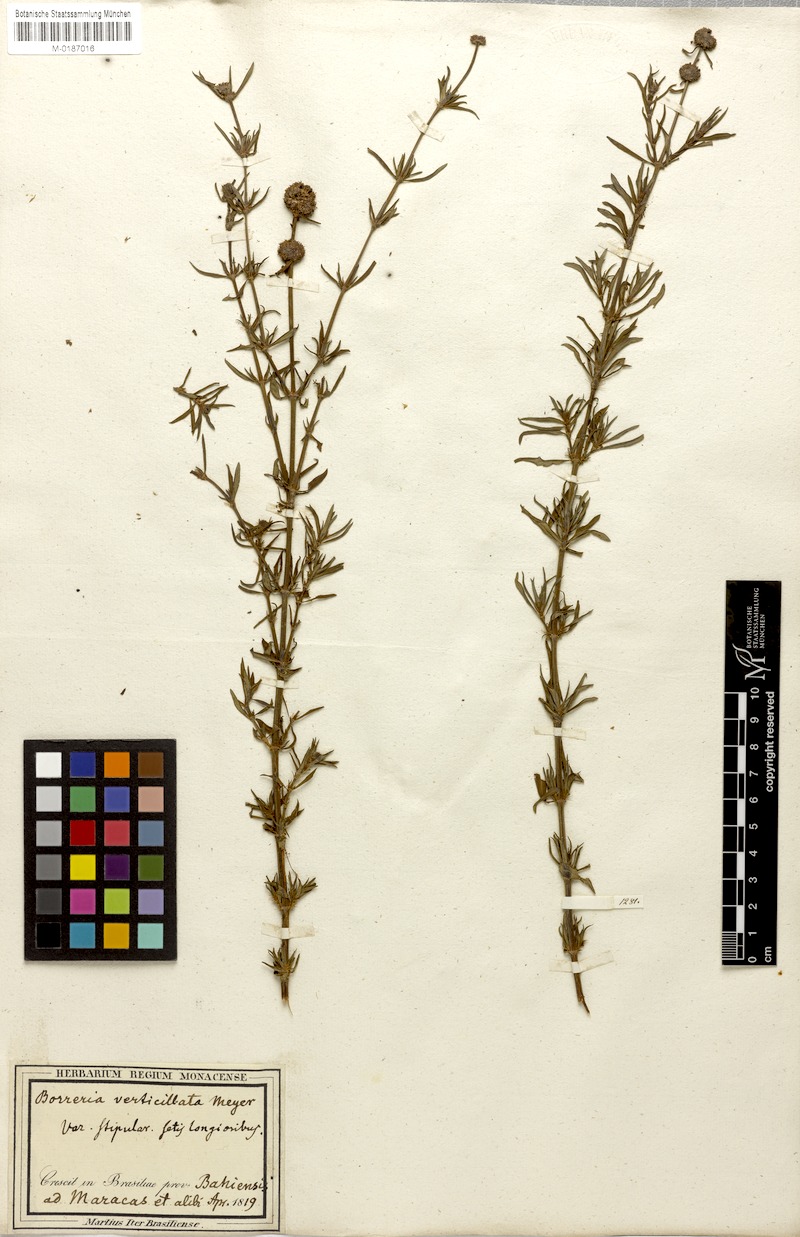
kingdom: Plantae
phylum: Tracheophyta
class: Magnoliopsida
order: Gentianales
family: Rubiaceae
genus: Spermacoce
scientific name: Spermacoce verticillata
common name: Shrubby false buttonweed
